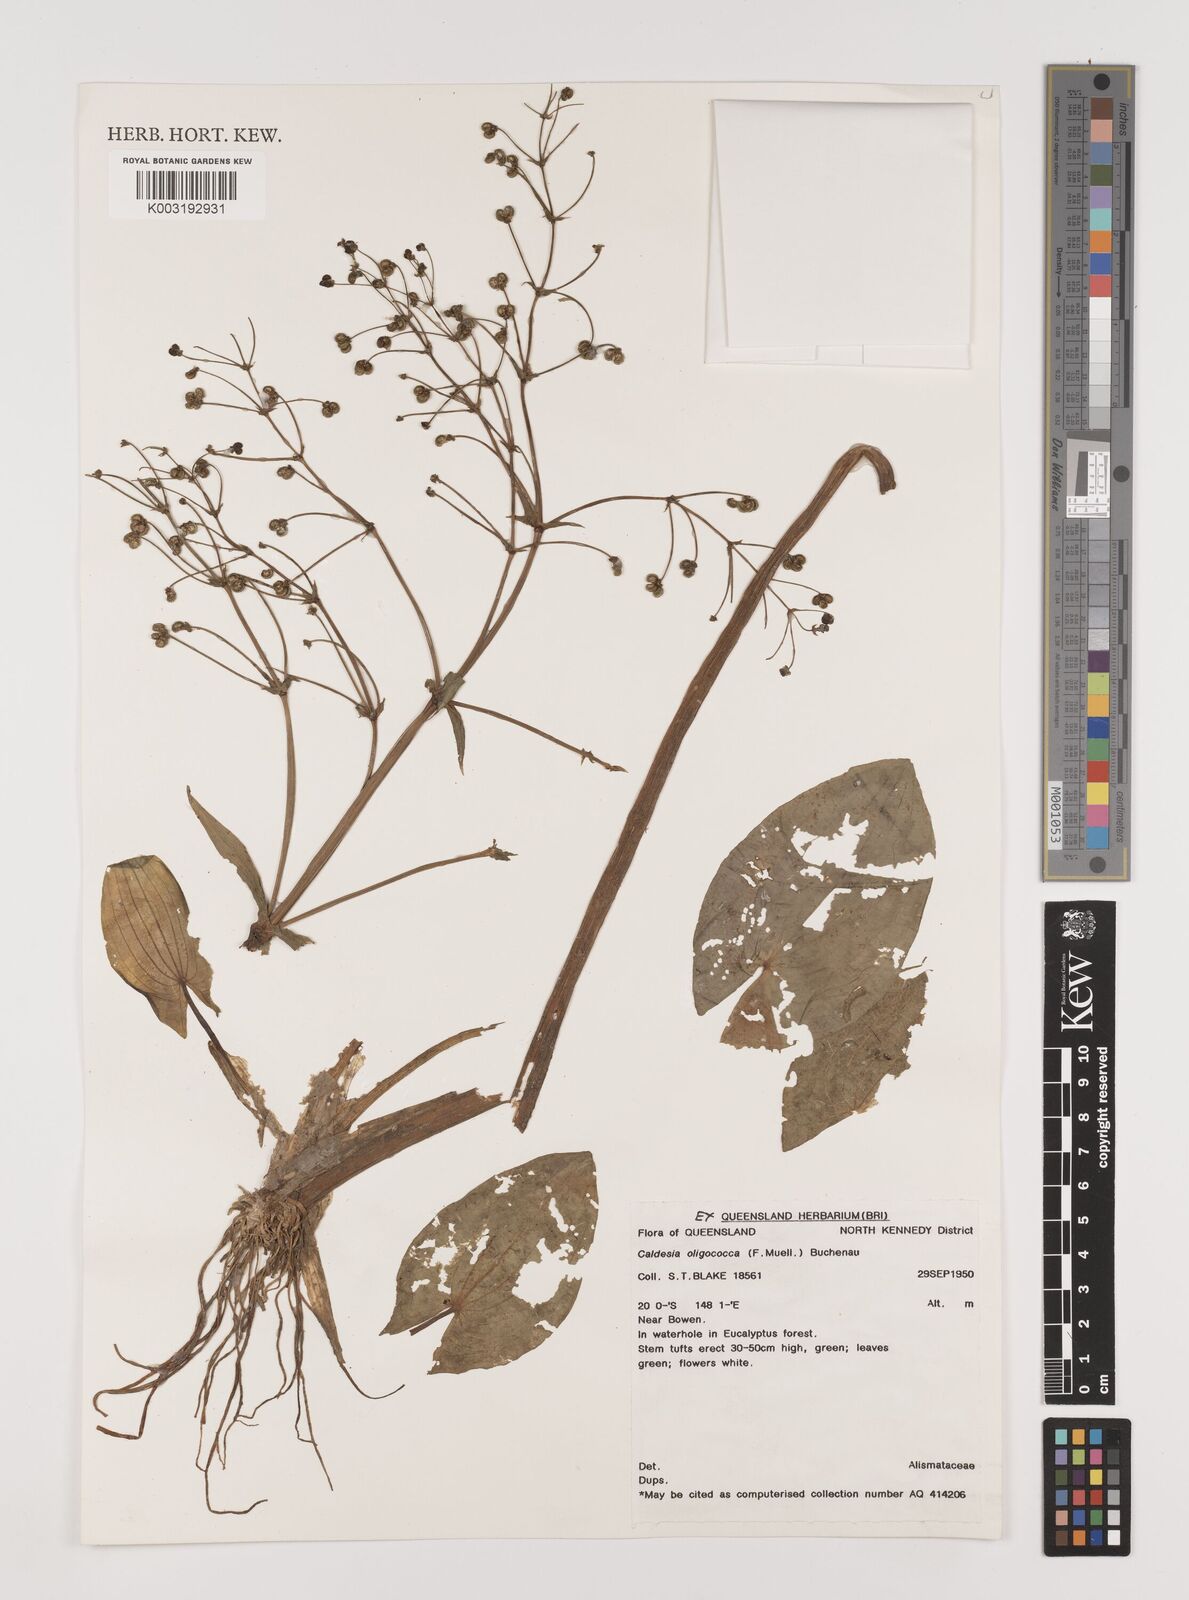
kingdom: Plantae
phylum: Tracheophyta
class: Liliopsida
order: Alismatales
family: Alismataceae
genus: Albidella
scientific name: Albidella oligococca
